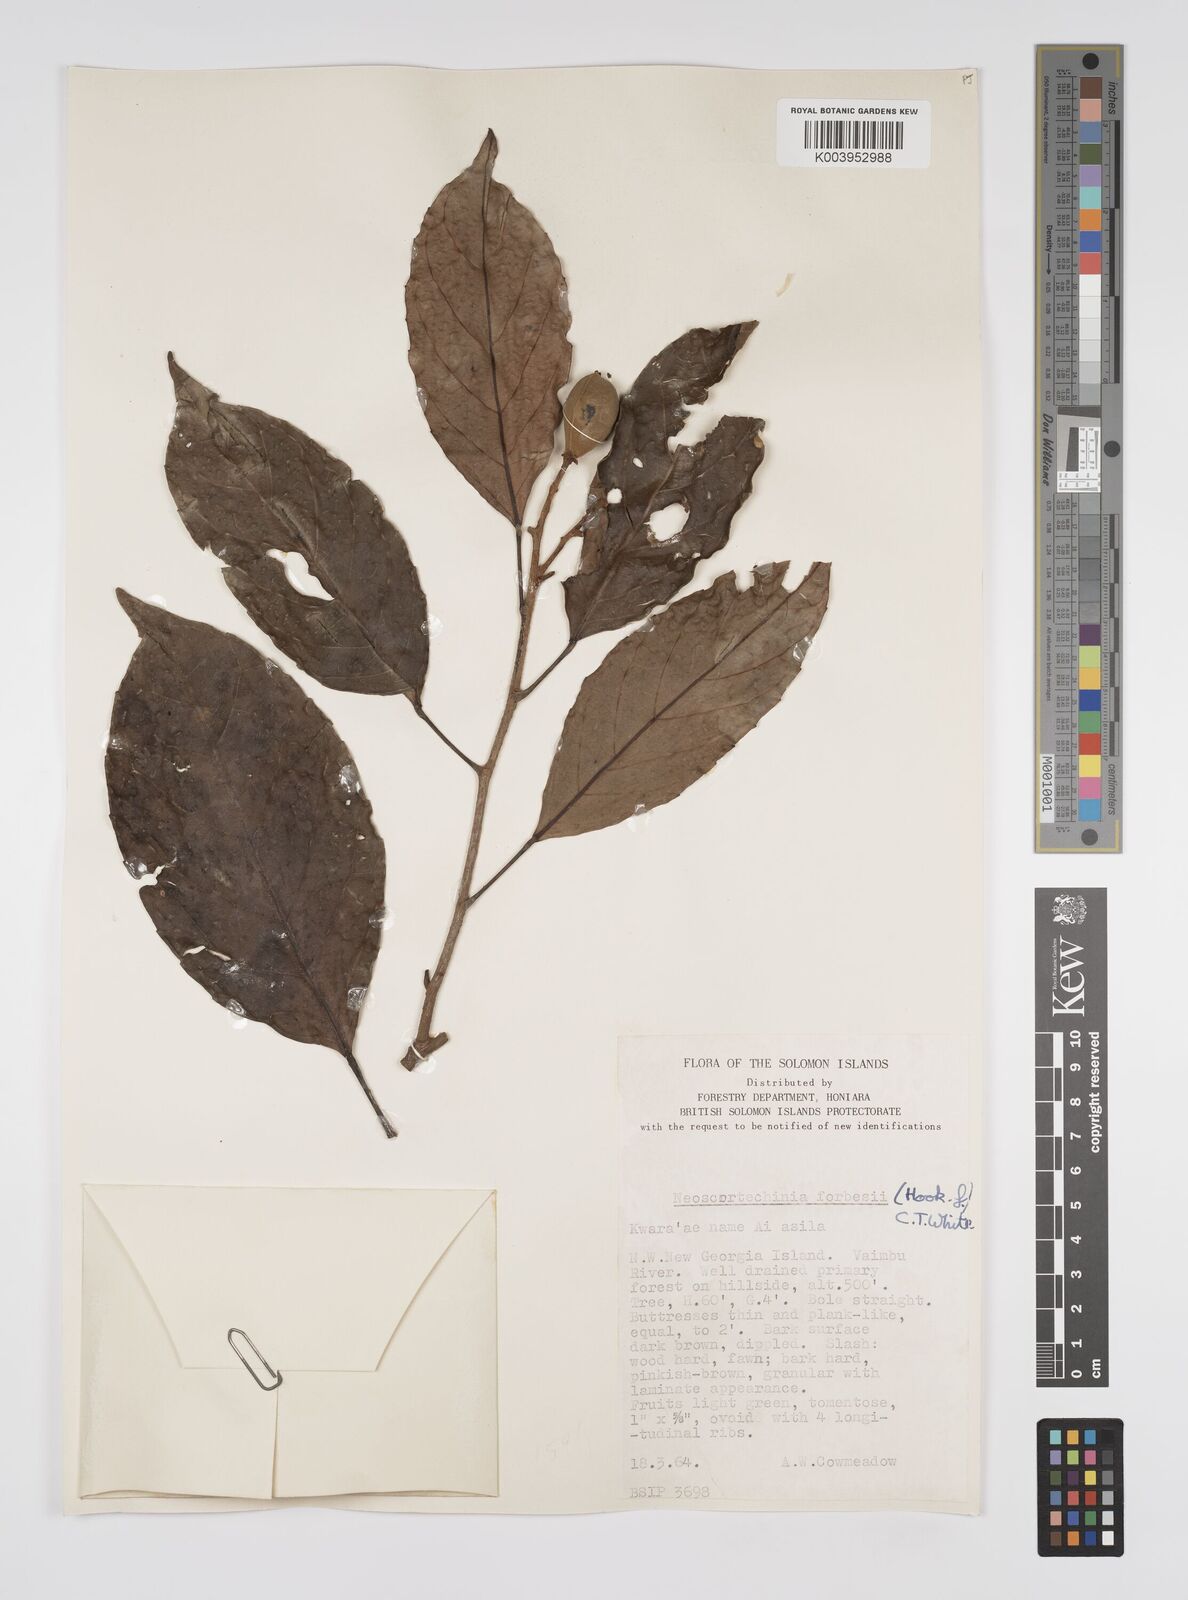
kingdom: Plantae
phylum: Tracheophyta
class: Magnoliopsida
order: Malpighiales
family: Euphorbiaceae
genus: Neoscortechinia
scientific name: Neoscortechinia forbesii
